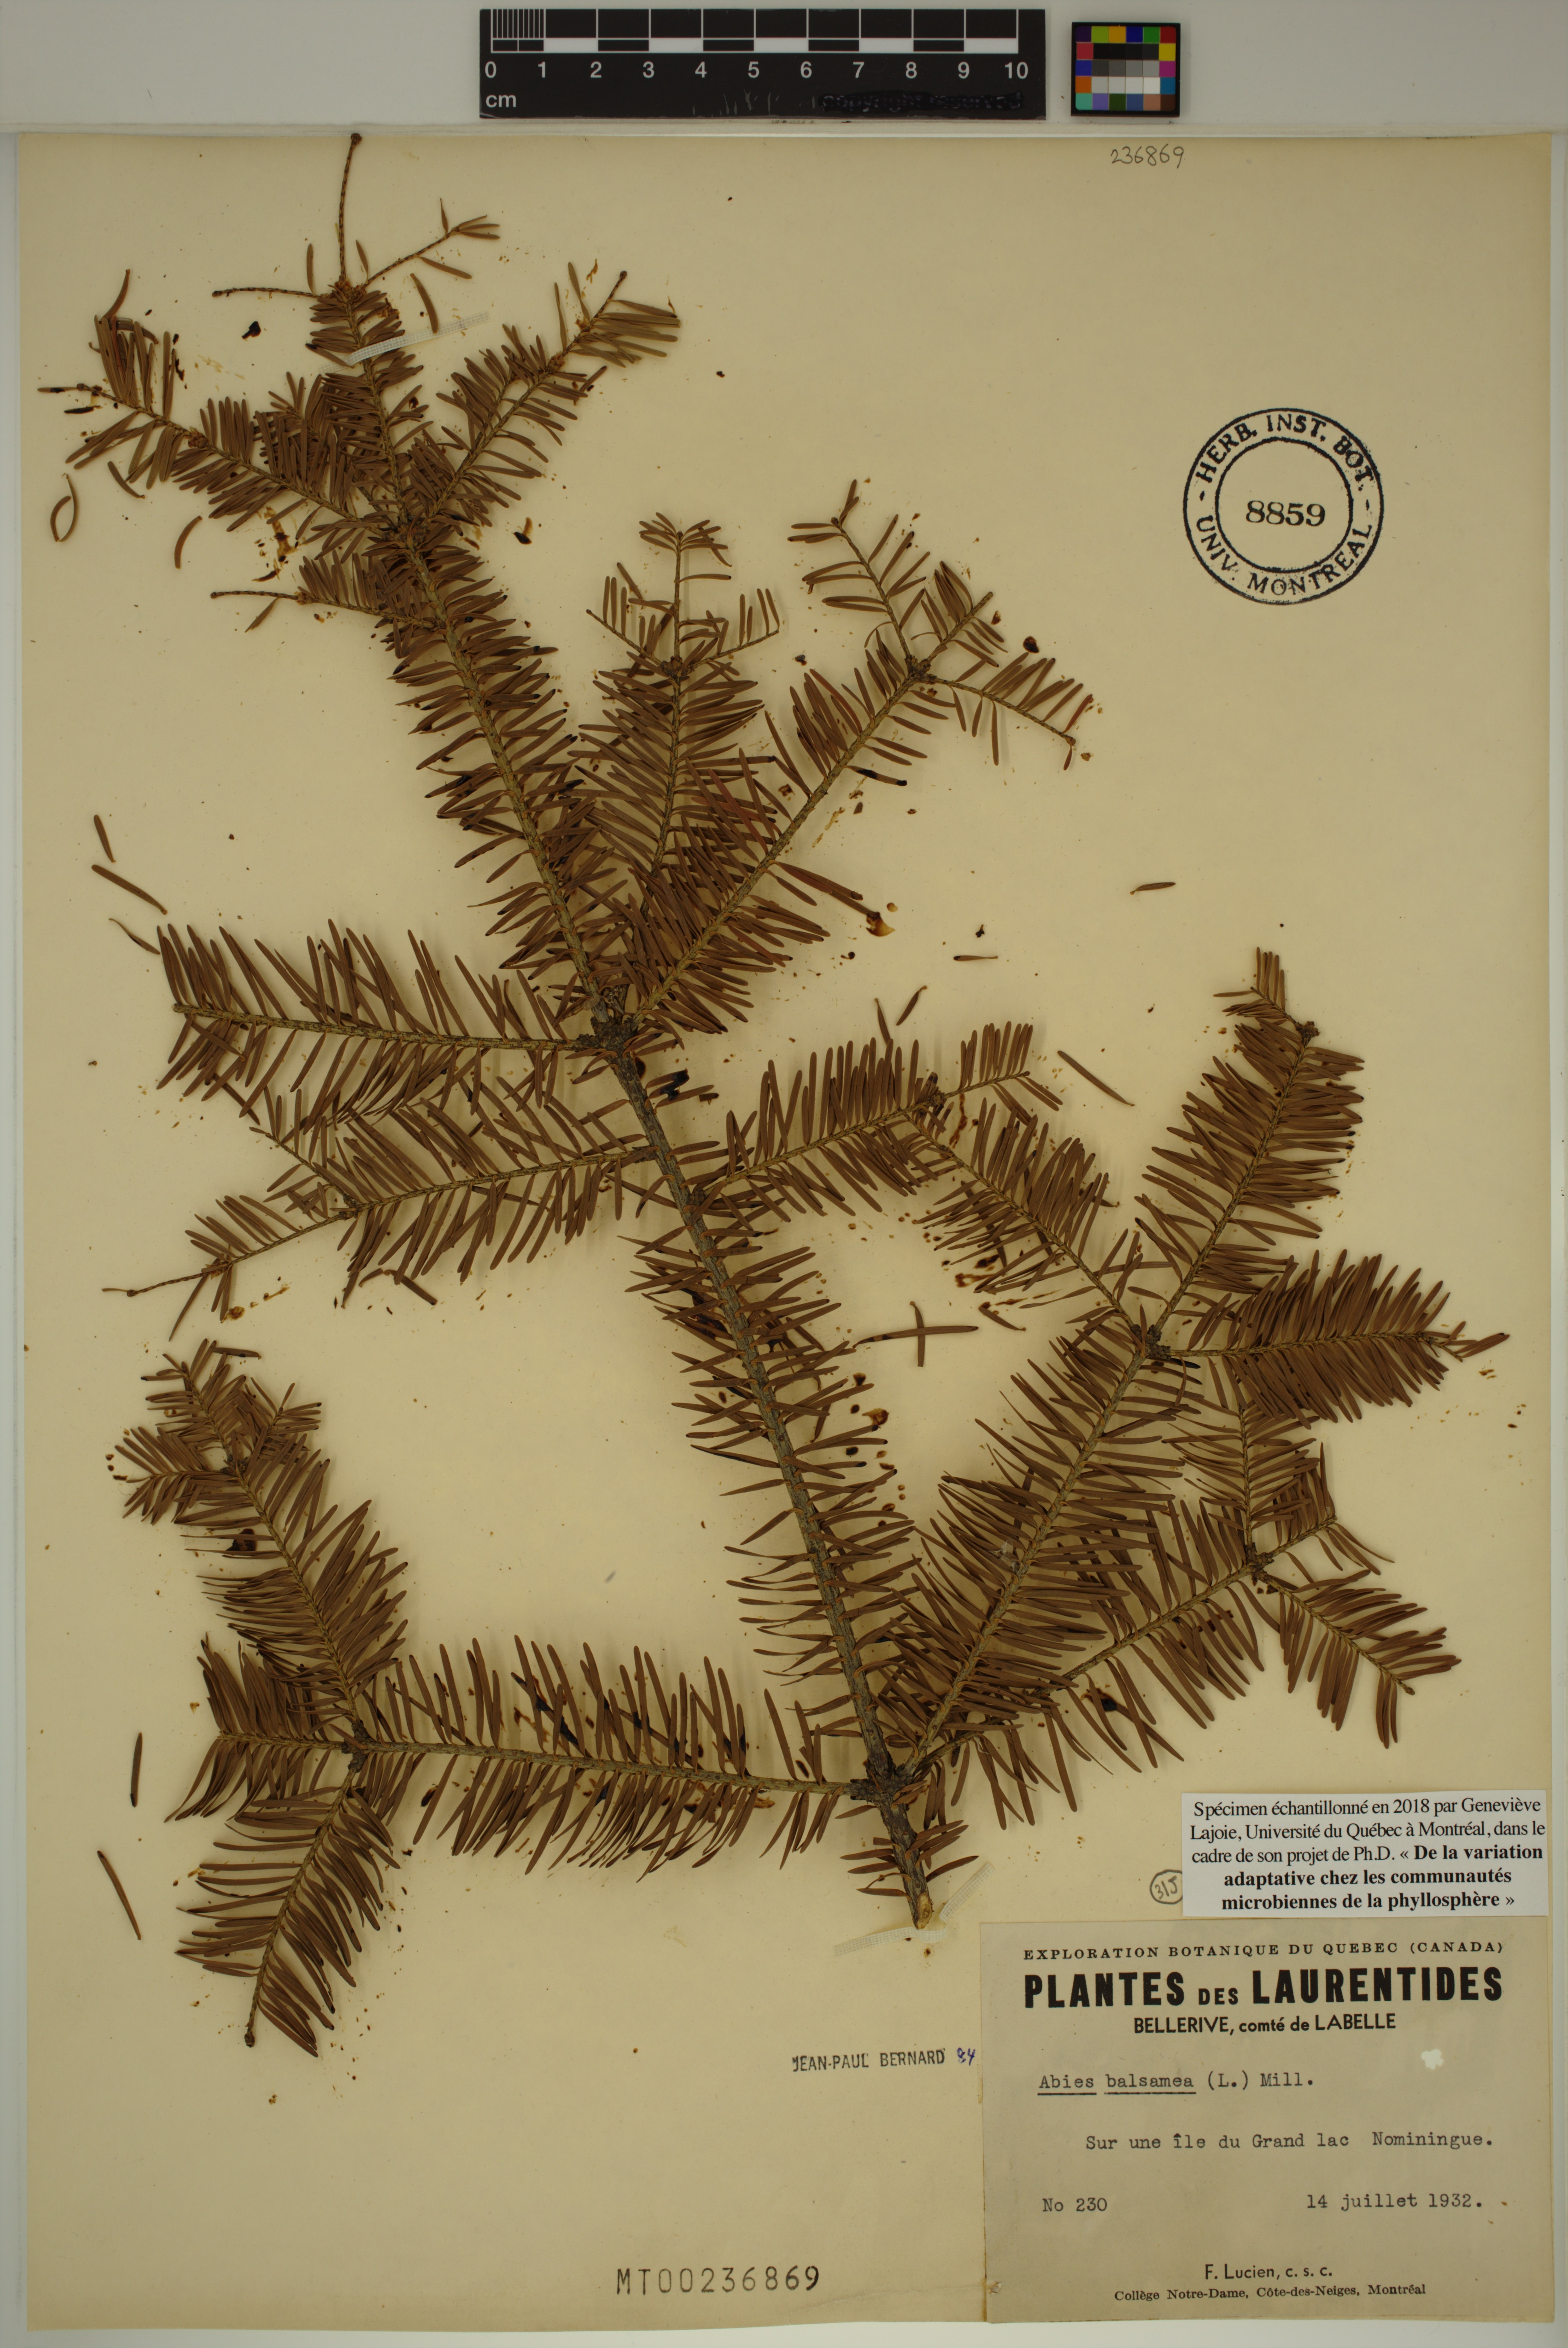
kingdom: Plantae
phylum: Tracheophyta
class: Pinopsida
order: Pinales
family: Pinaceae
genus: Abies
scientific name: Abies balsamea
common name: Balsam fir
